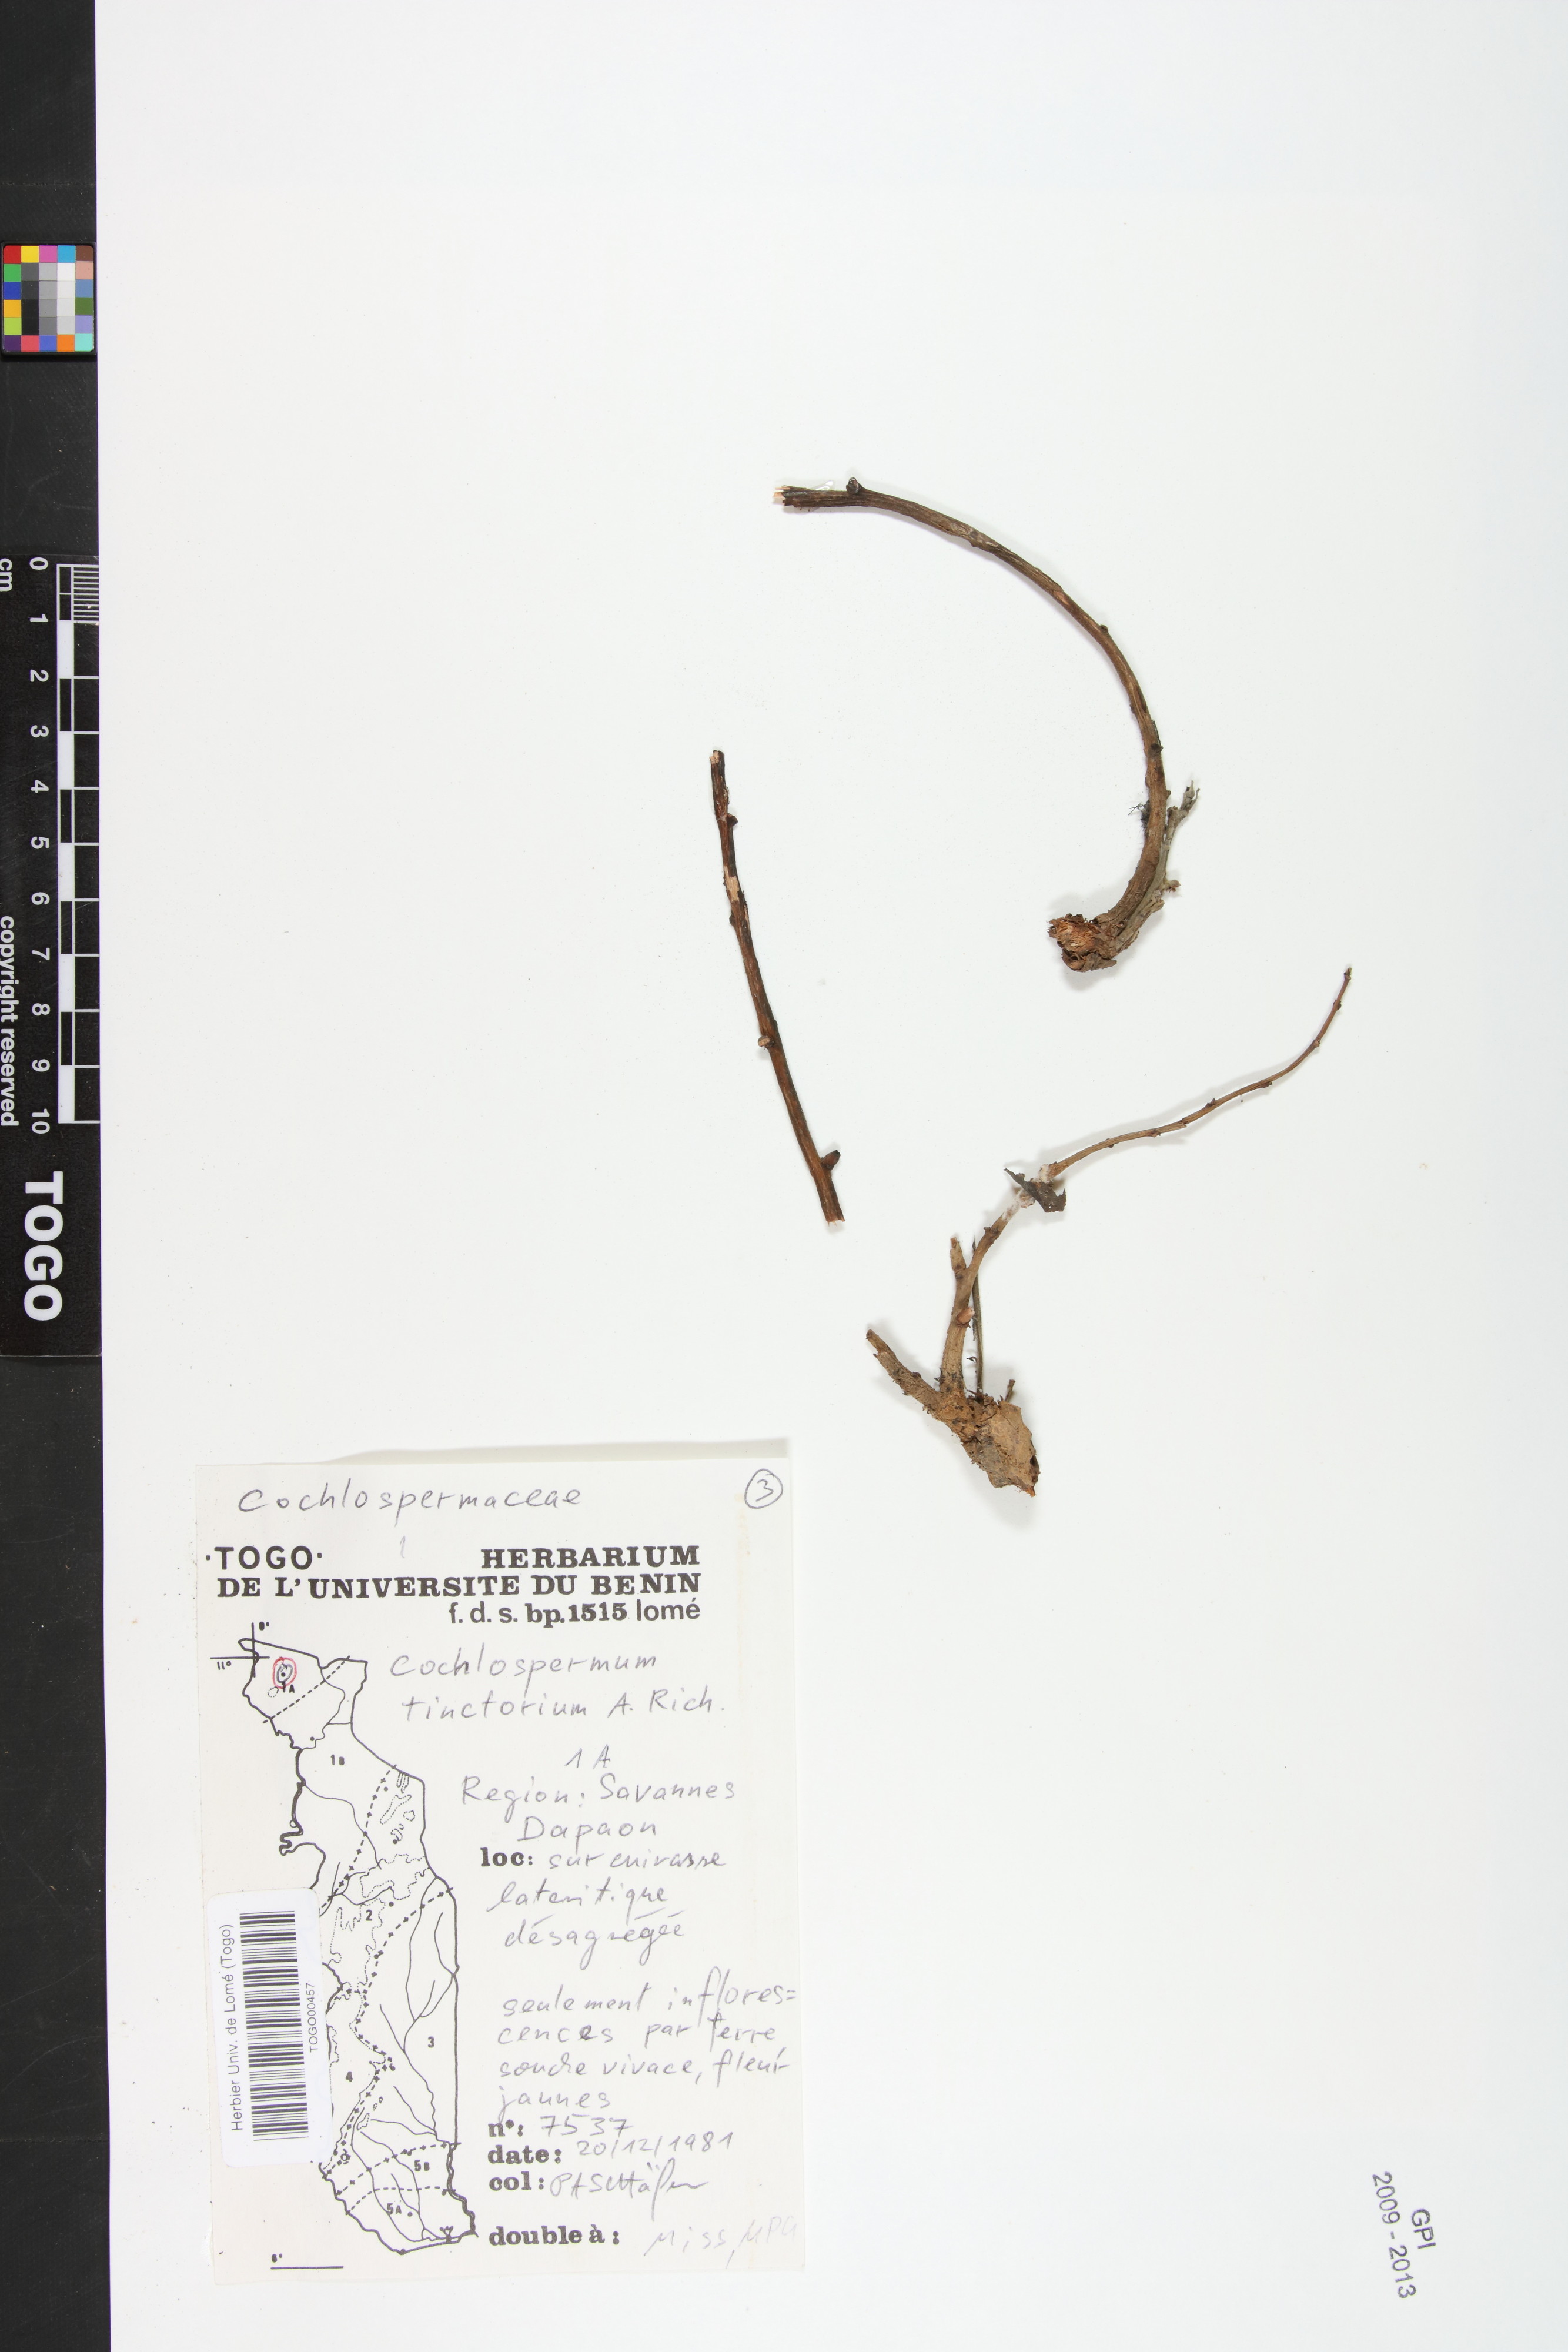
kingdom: Plantae
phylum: Tracheophyta
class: Magnoliopsida
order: Malvales
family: Cochlospermaceae
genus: Cochlospermum
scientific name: Cochlospermum tinctorium
